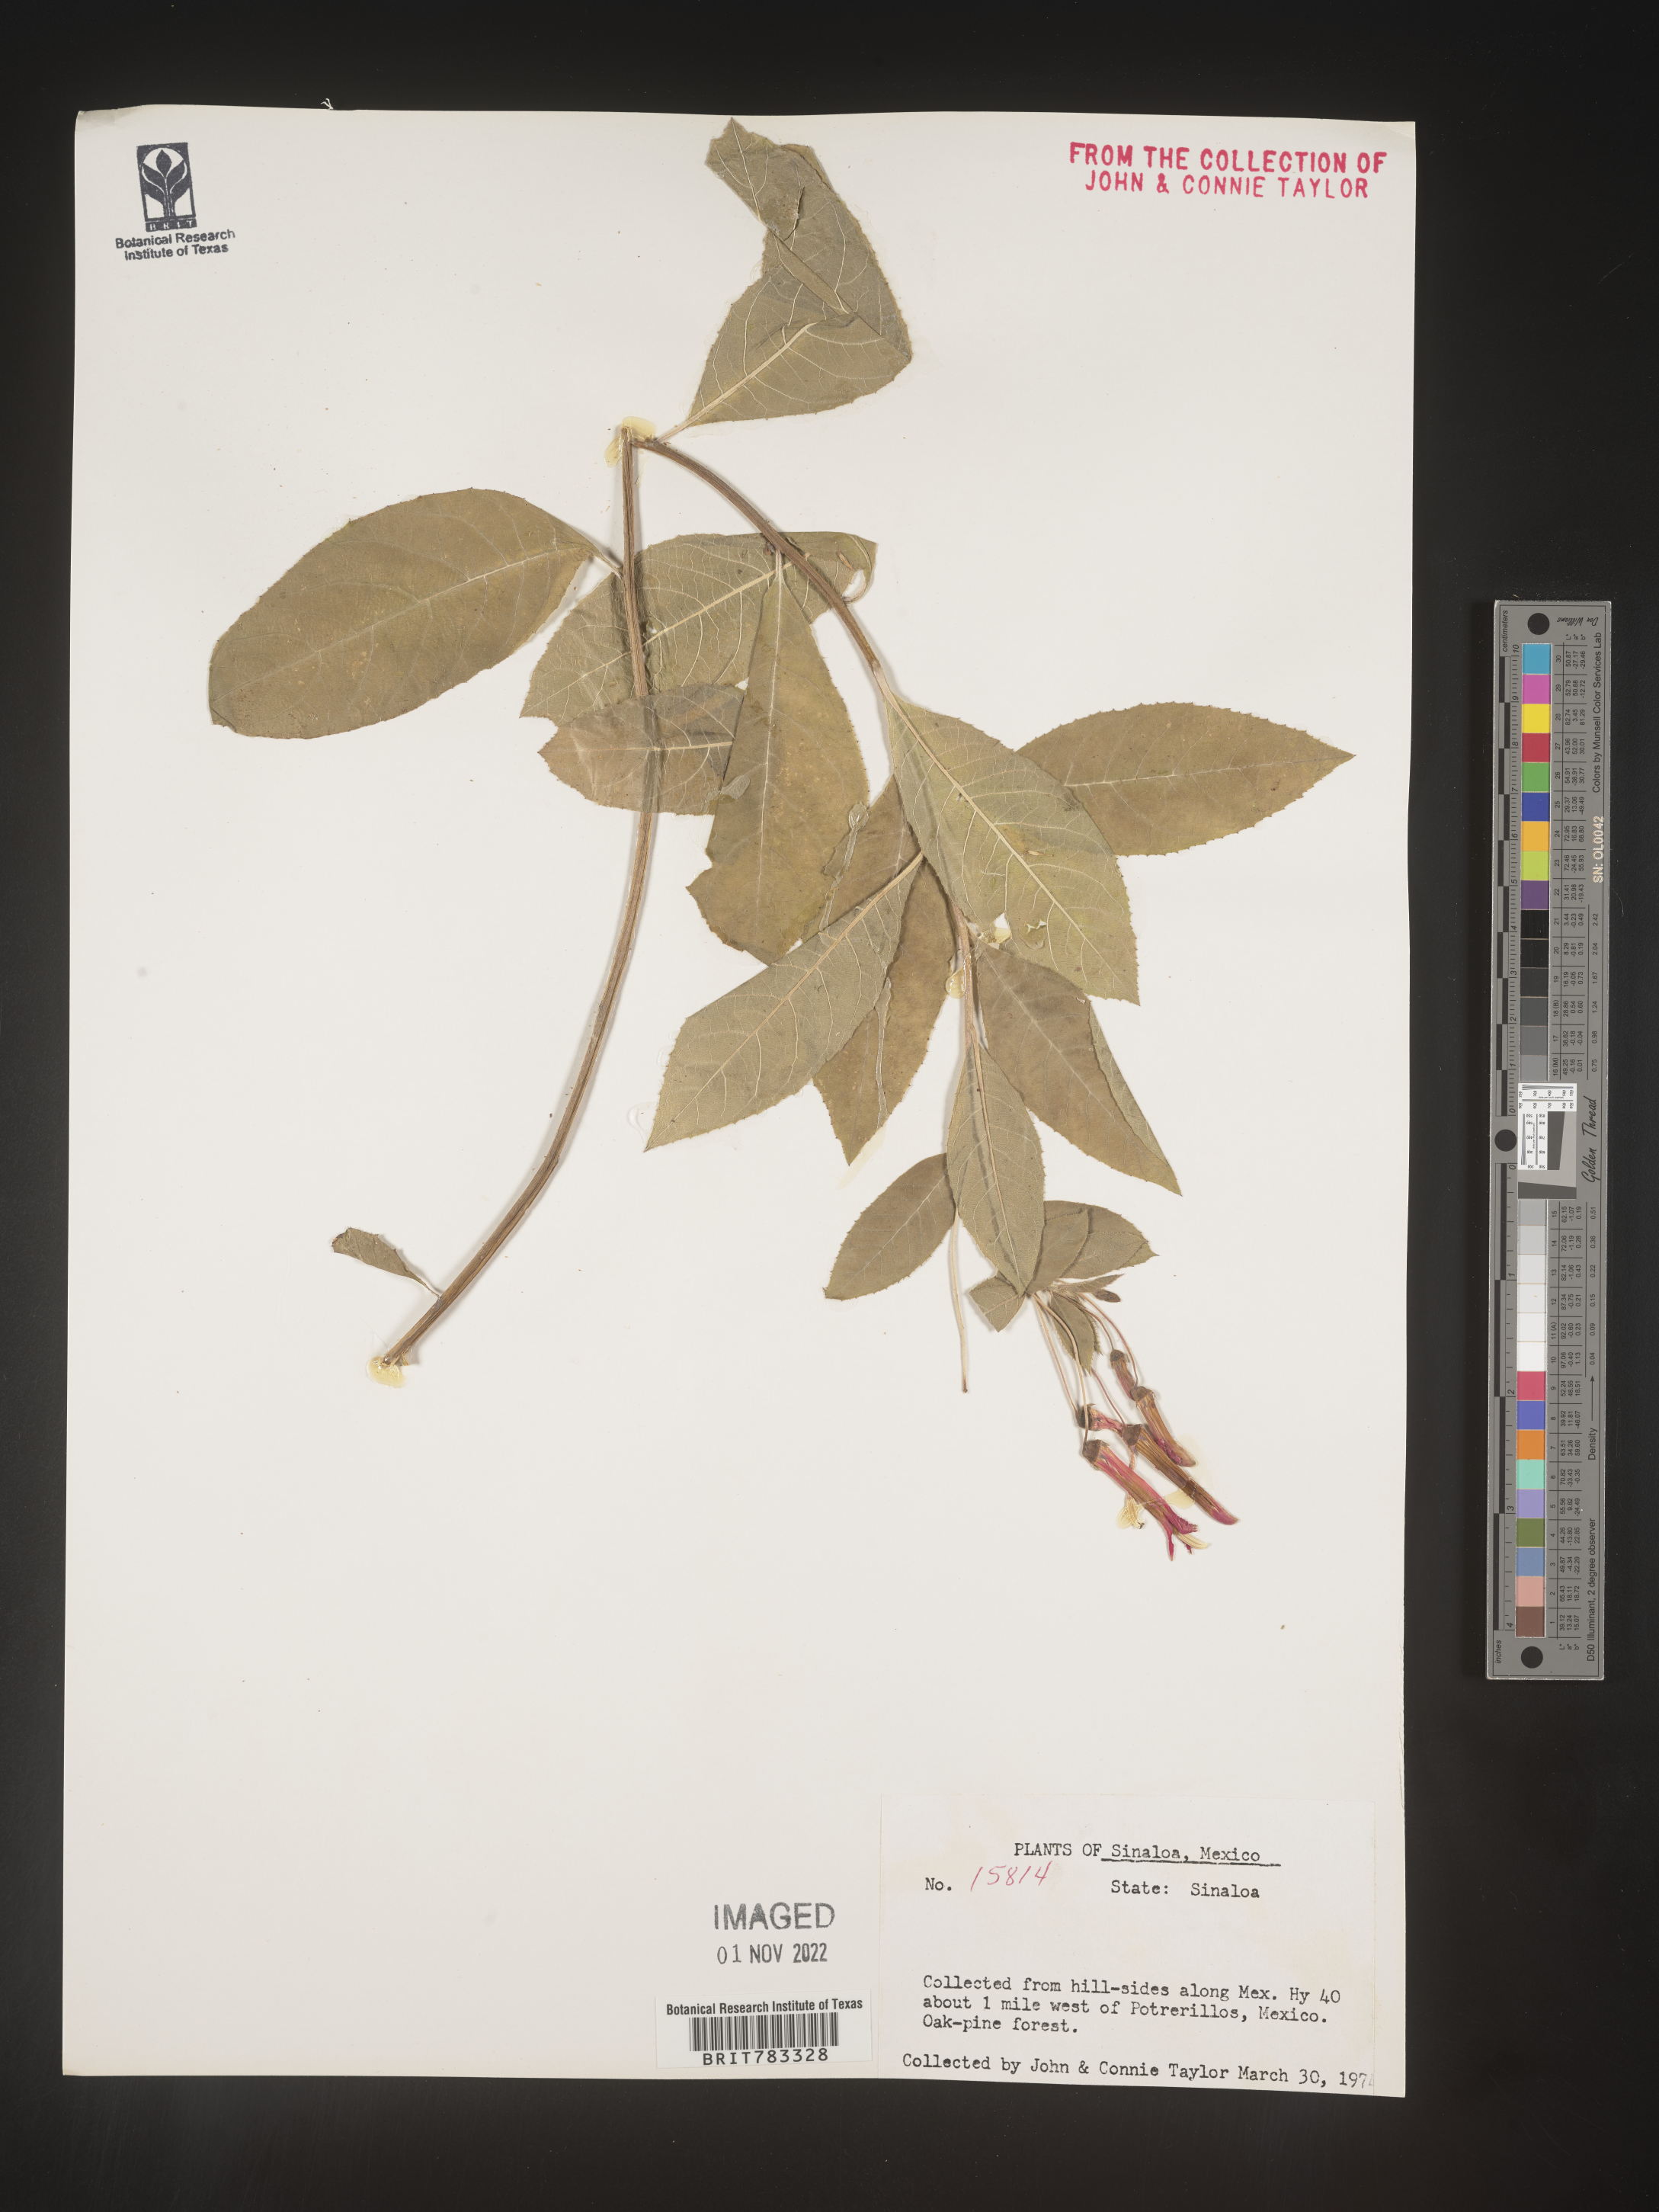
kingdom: Plantae
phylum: Tracheophyta
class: Magnoliopsida
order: Asterales
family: Campanulaceae
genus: Lobelia
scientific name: Lobelia
